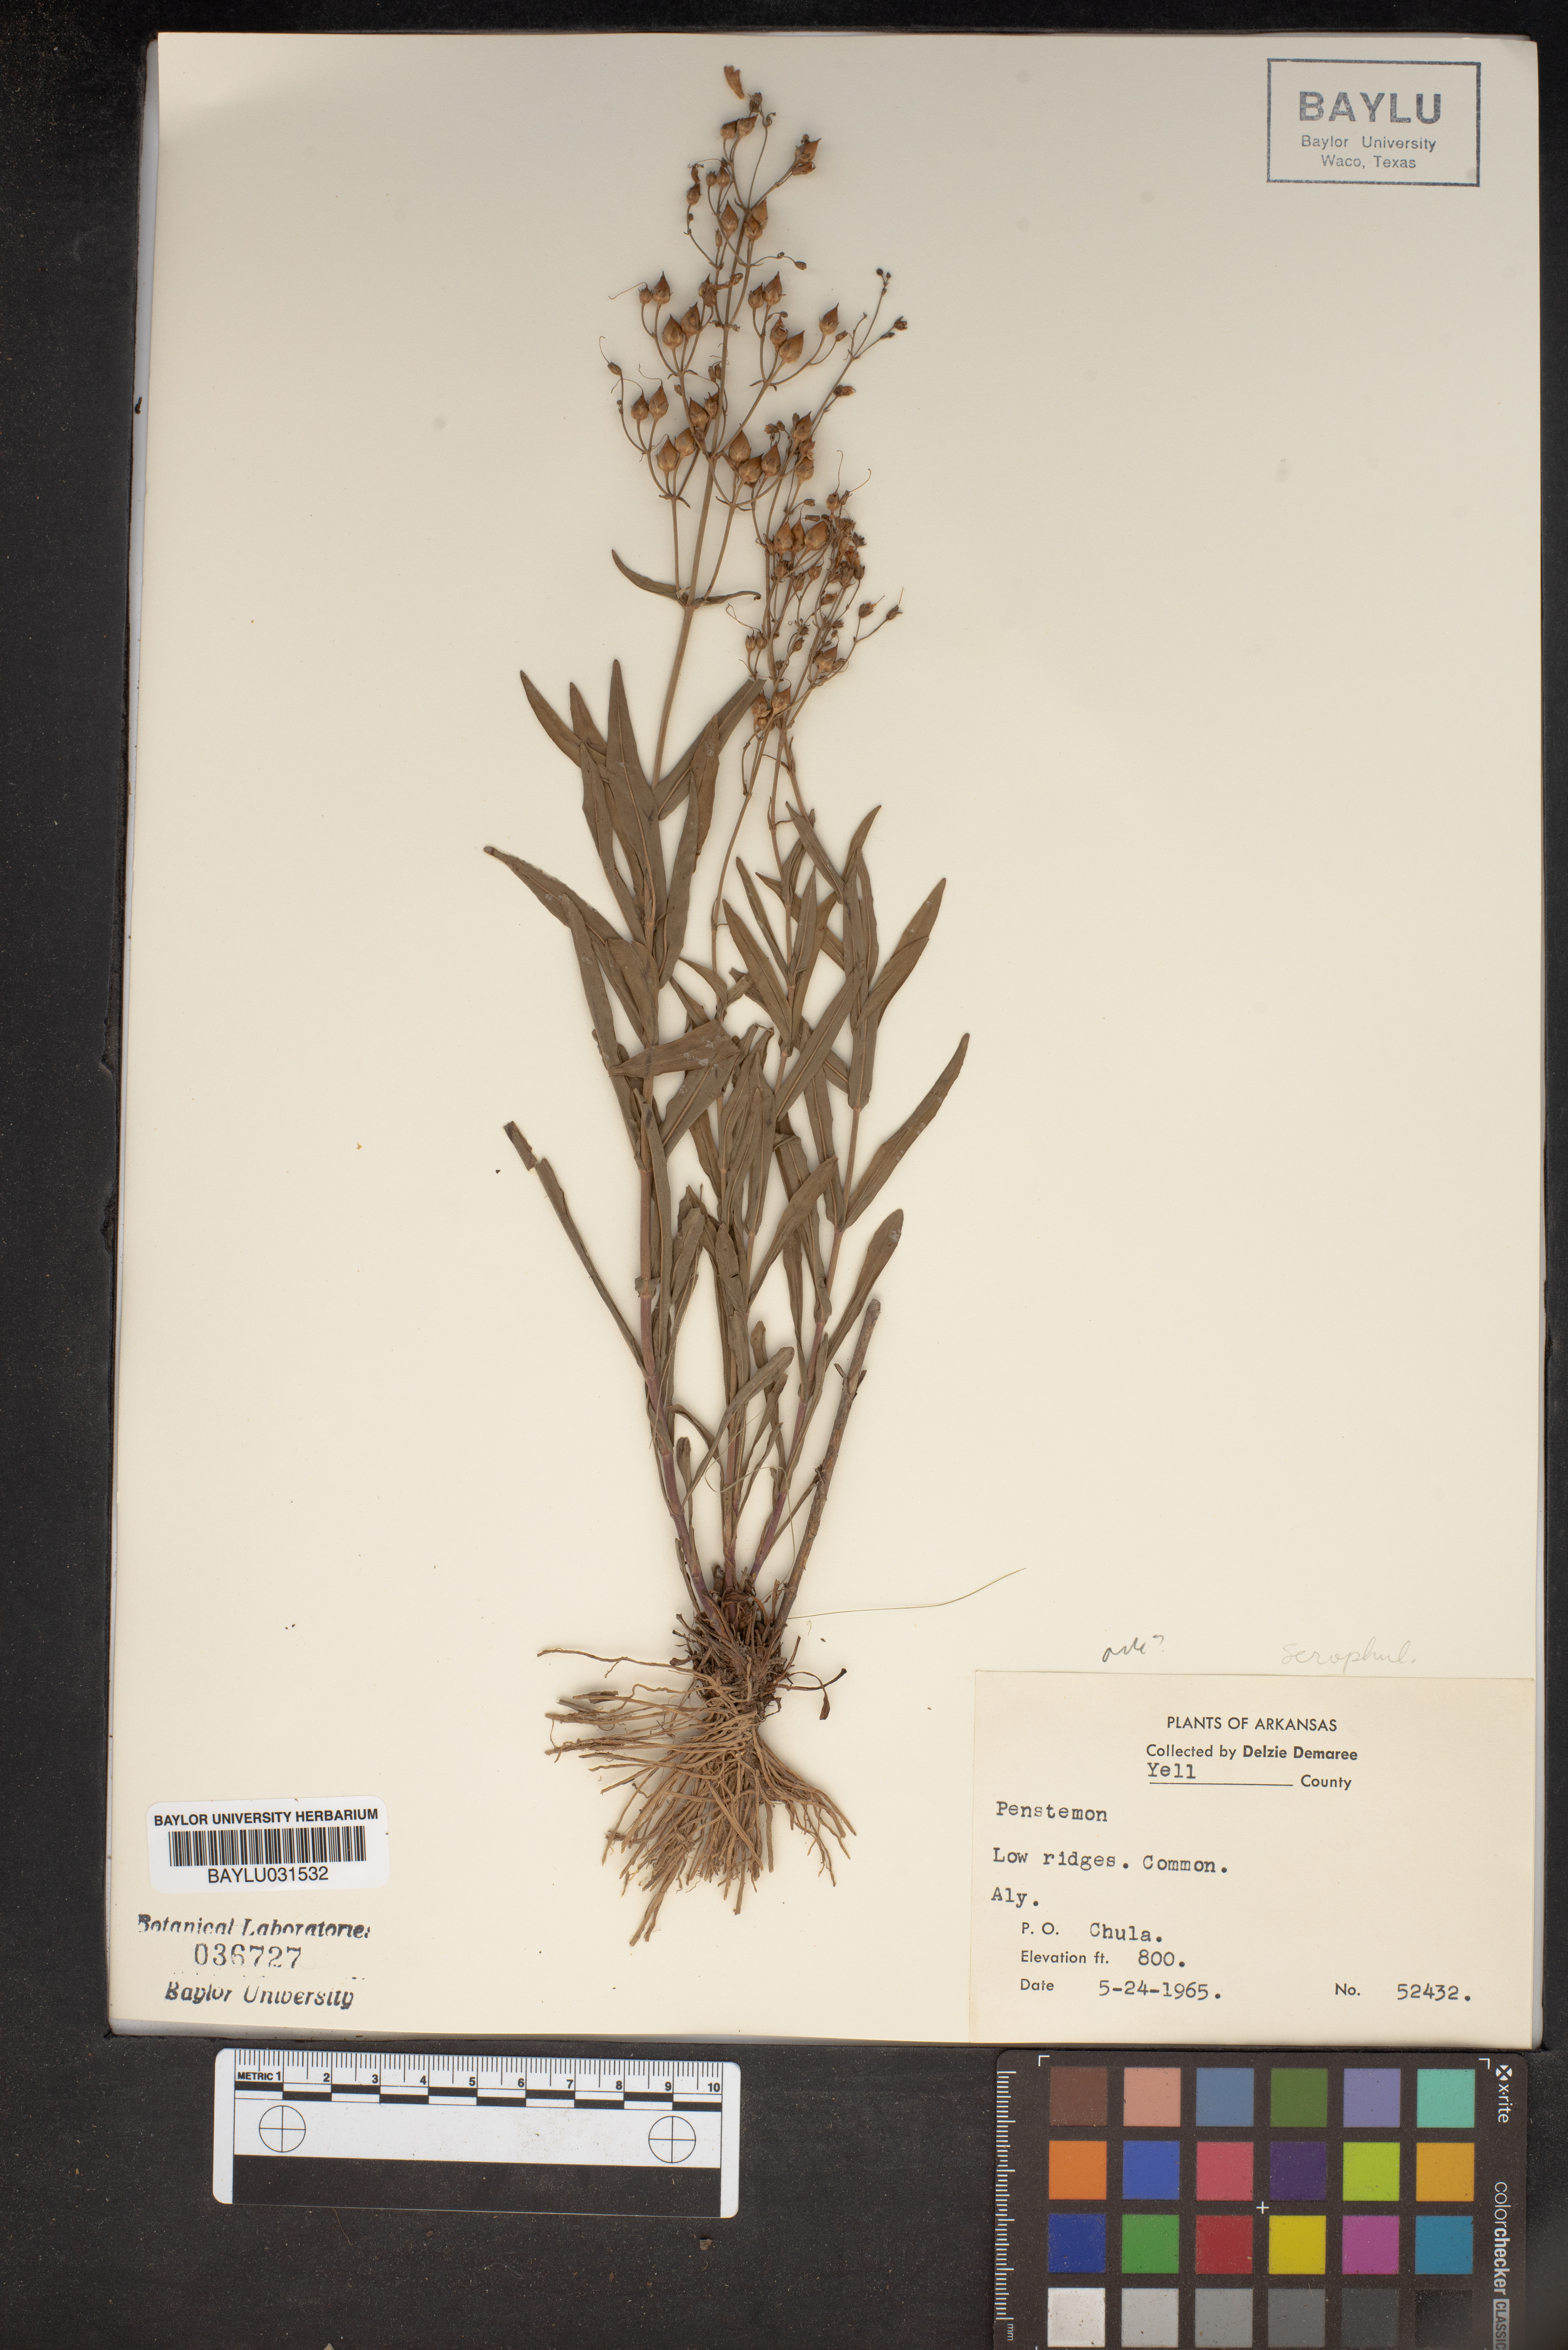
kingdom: Plantae
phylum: Tracheophyta
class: Magnoliopsida
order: Lamiales
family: Plantaginaceae
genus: Penstemon
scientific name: Penstemon
